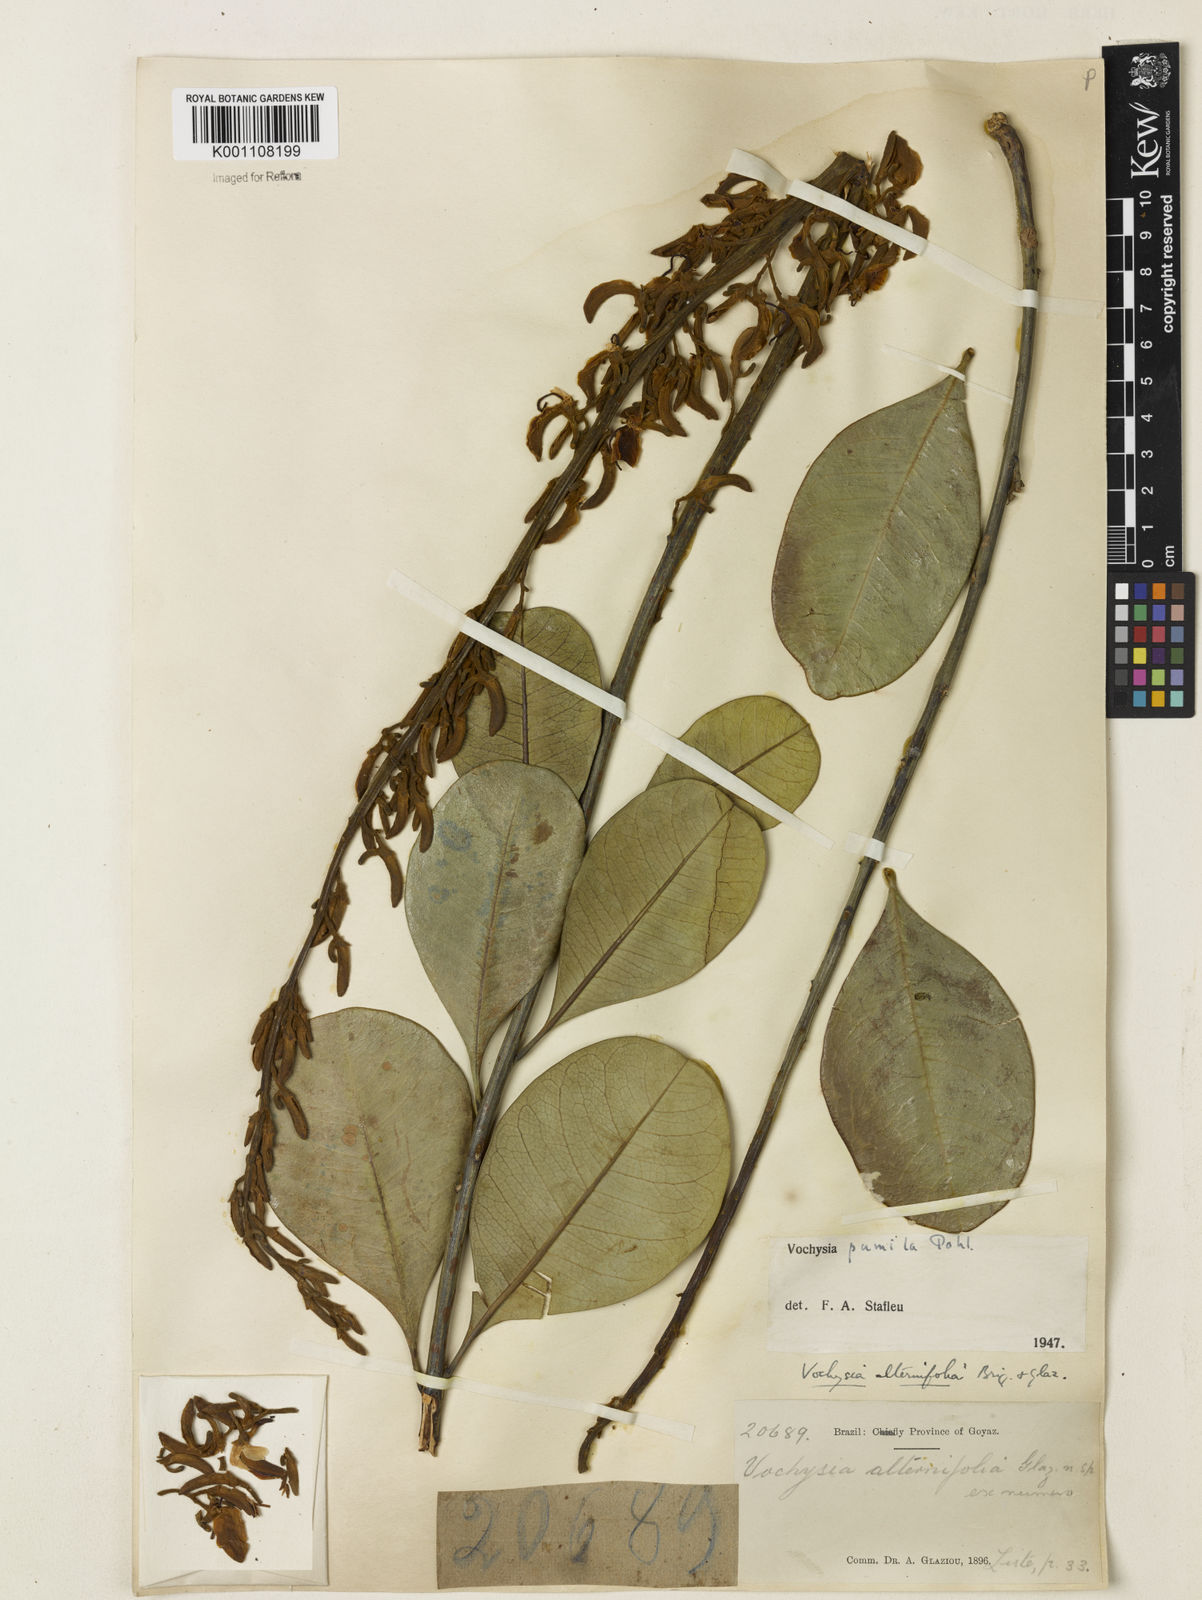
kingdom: Plantae
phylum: Tracheophyta
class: Magnoliopsida
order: Myrtales
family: Vochysiaceae
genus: Vochysia
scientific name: Vochysia pumila
